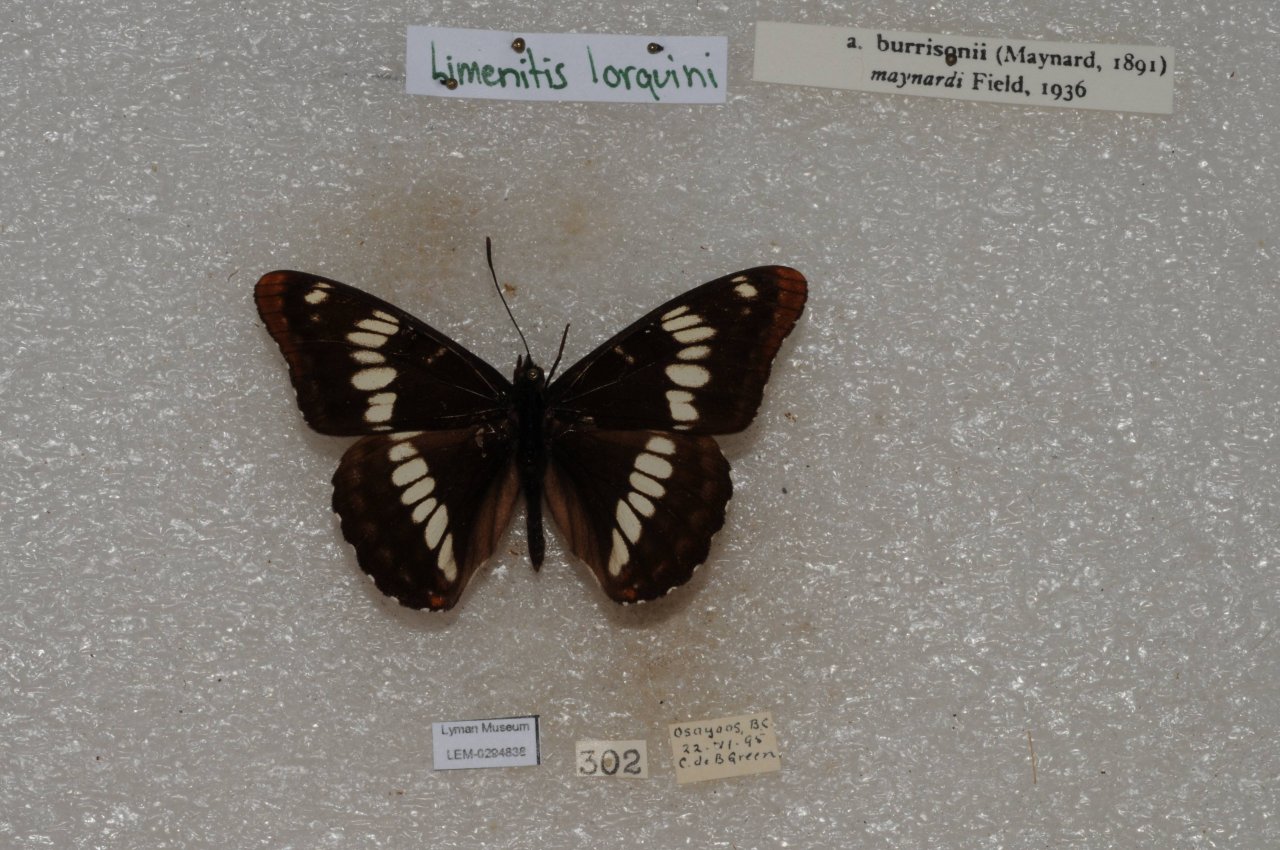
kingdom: Animalia
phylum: Arthropoda
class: Insecta
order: Lepidoptera
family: Nymphalidae
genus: Limenitis
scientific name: Limenitis lorquini
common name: Lorquin's Admiral
